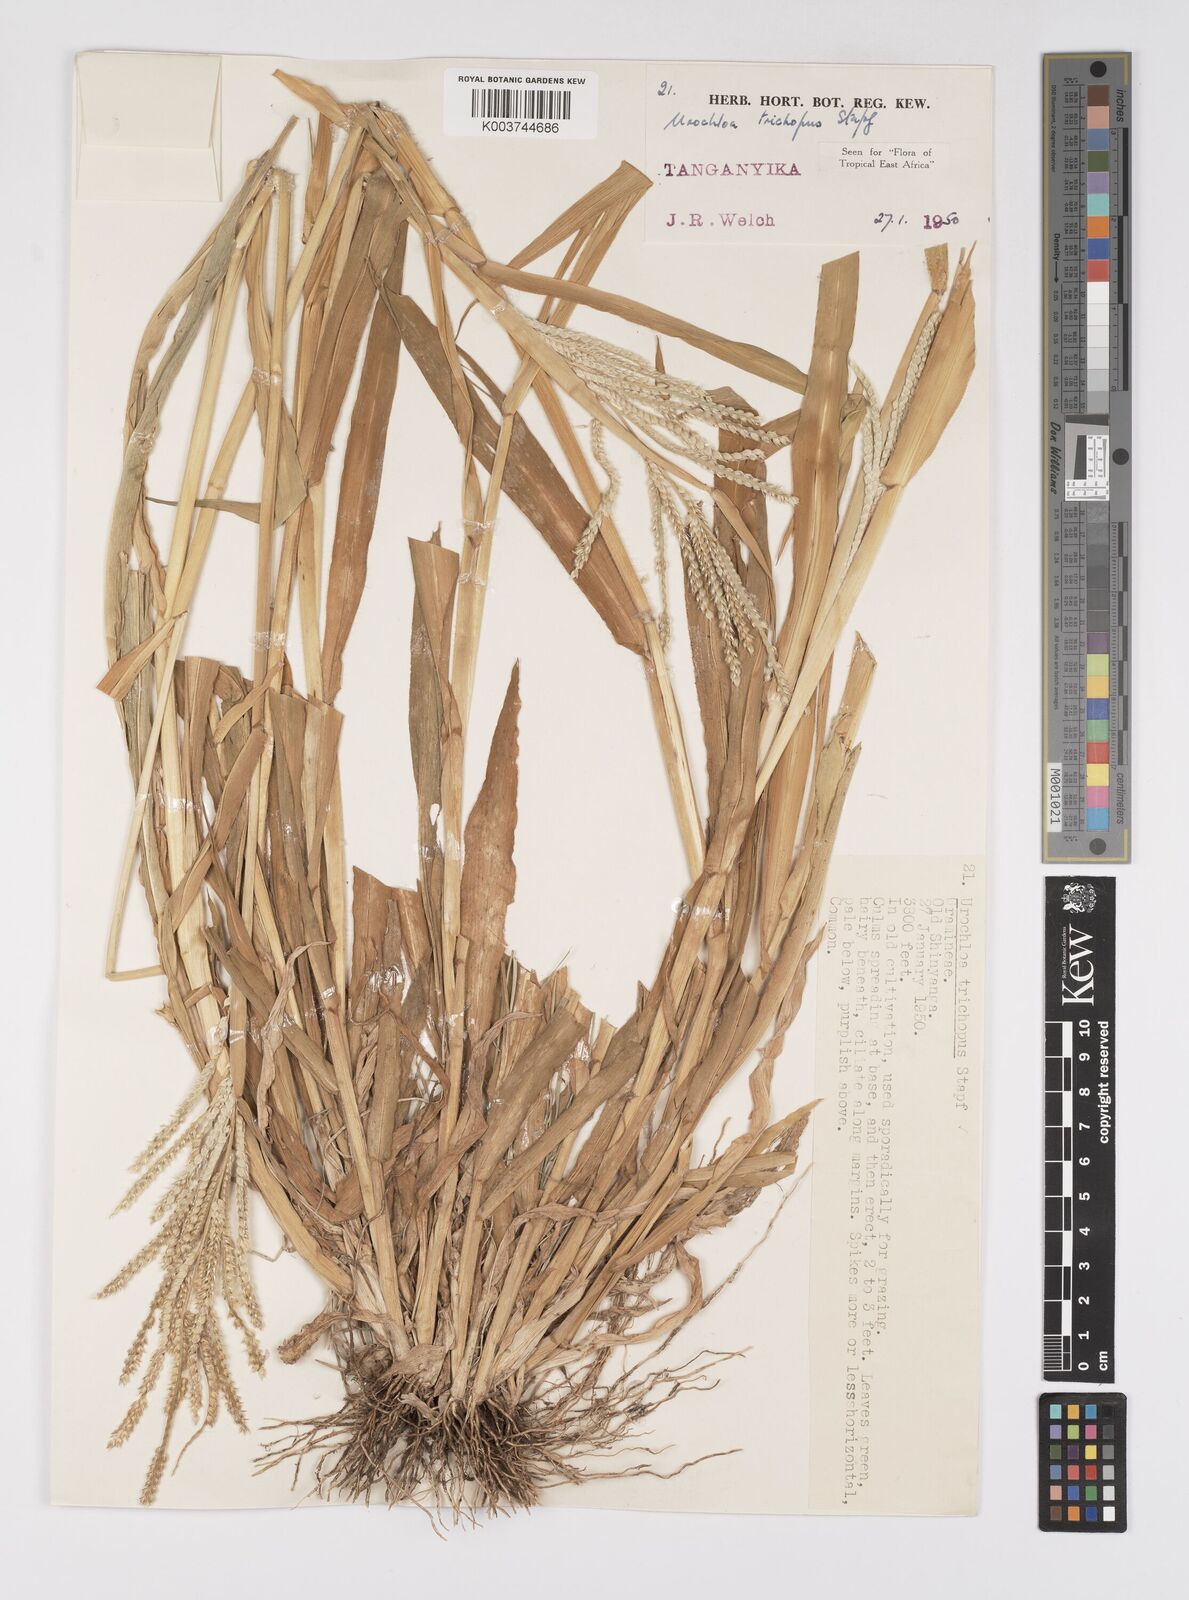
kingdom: Plantae
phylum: Tracheophyta
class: Liliopsida
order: Poales
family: Poaceae
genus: Urochloa
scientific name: Urochloa trichopus
